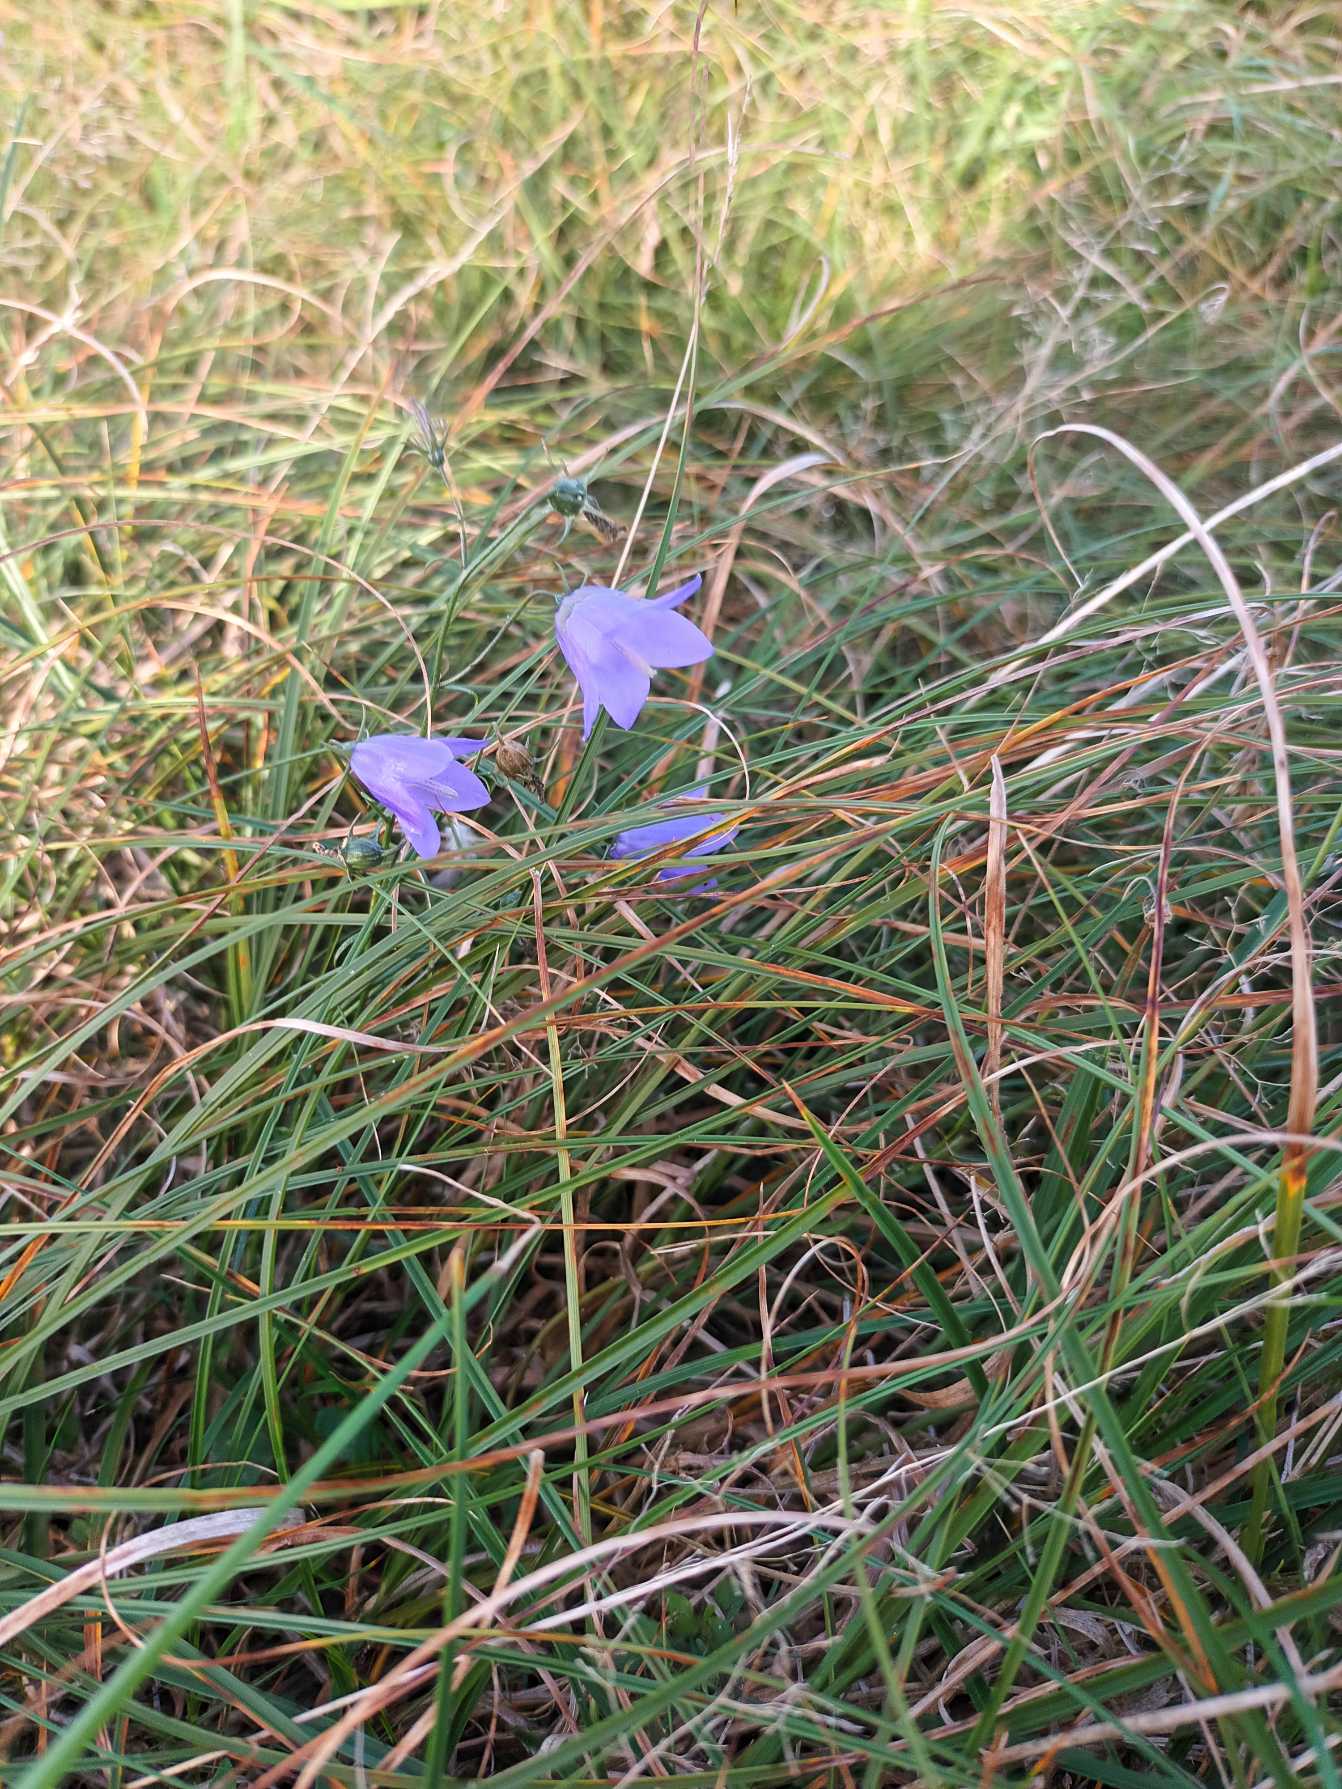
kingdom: Plantae
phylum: Tracheophyta
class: Magnoliopsida
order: Asterales
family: Campanulaceae
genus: Campanula
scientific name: Campanula rotundifolia
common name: Liden klokke
